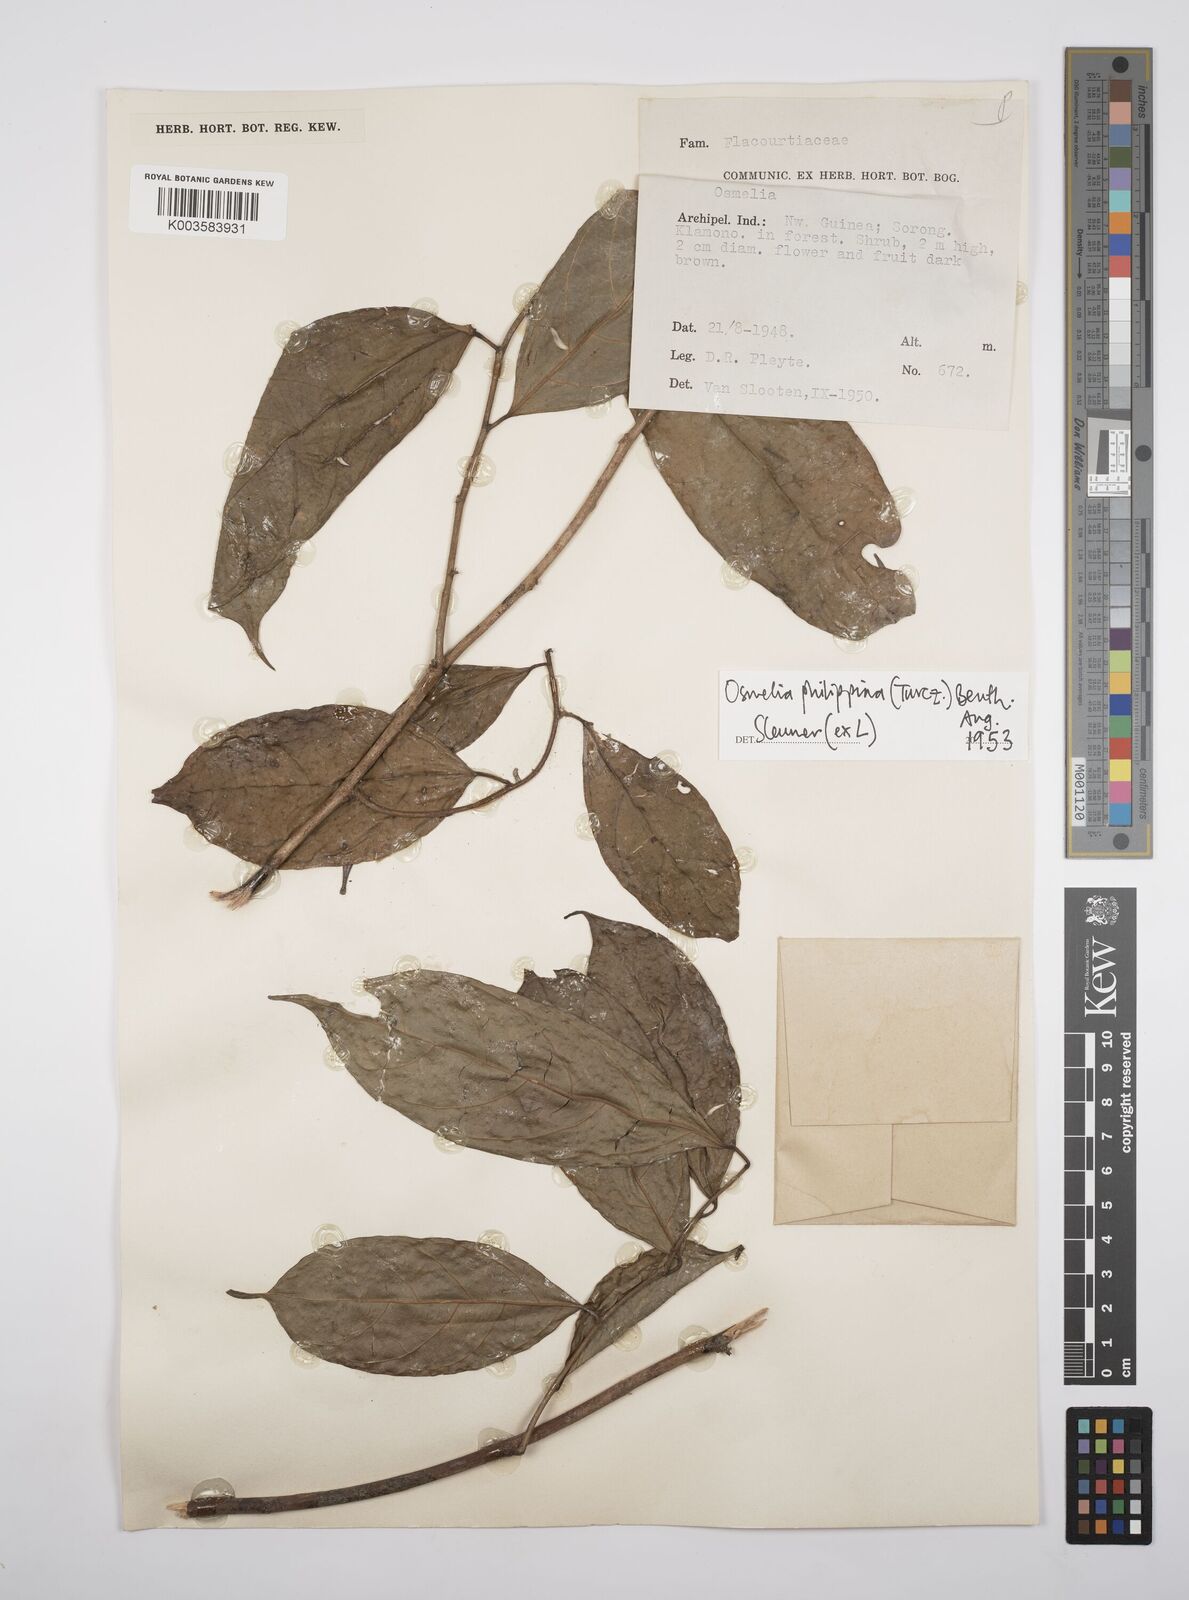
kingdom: Plantae
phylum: Tracheophyta
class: Magnoliopsida
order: Malpighiales
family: Salicaceae
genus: Osmelia
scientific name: Osmelia philippina
